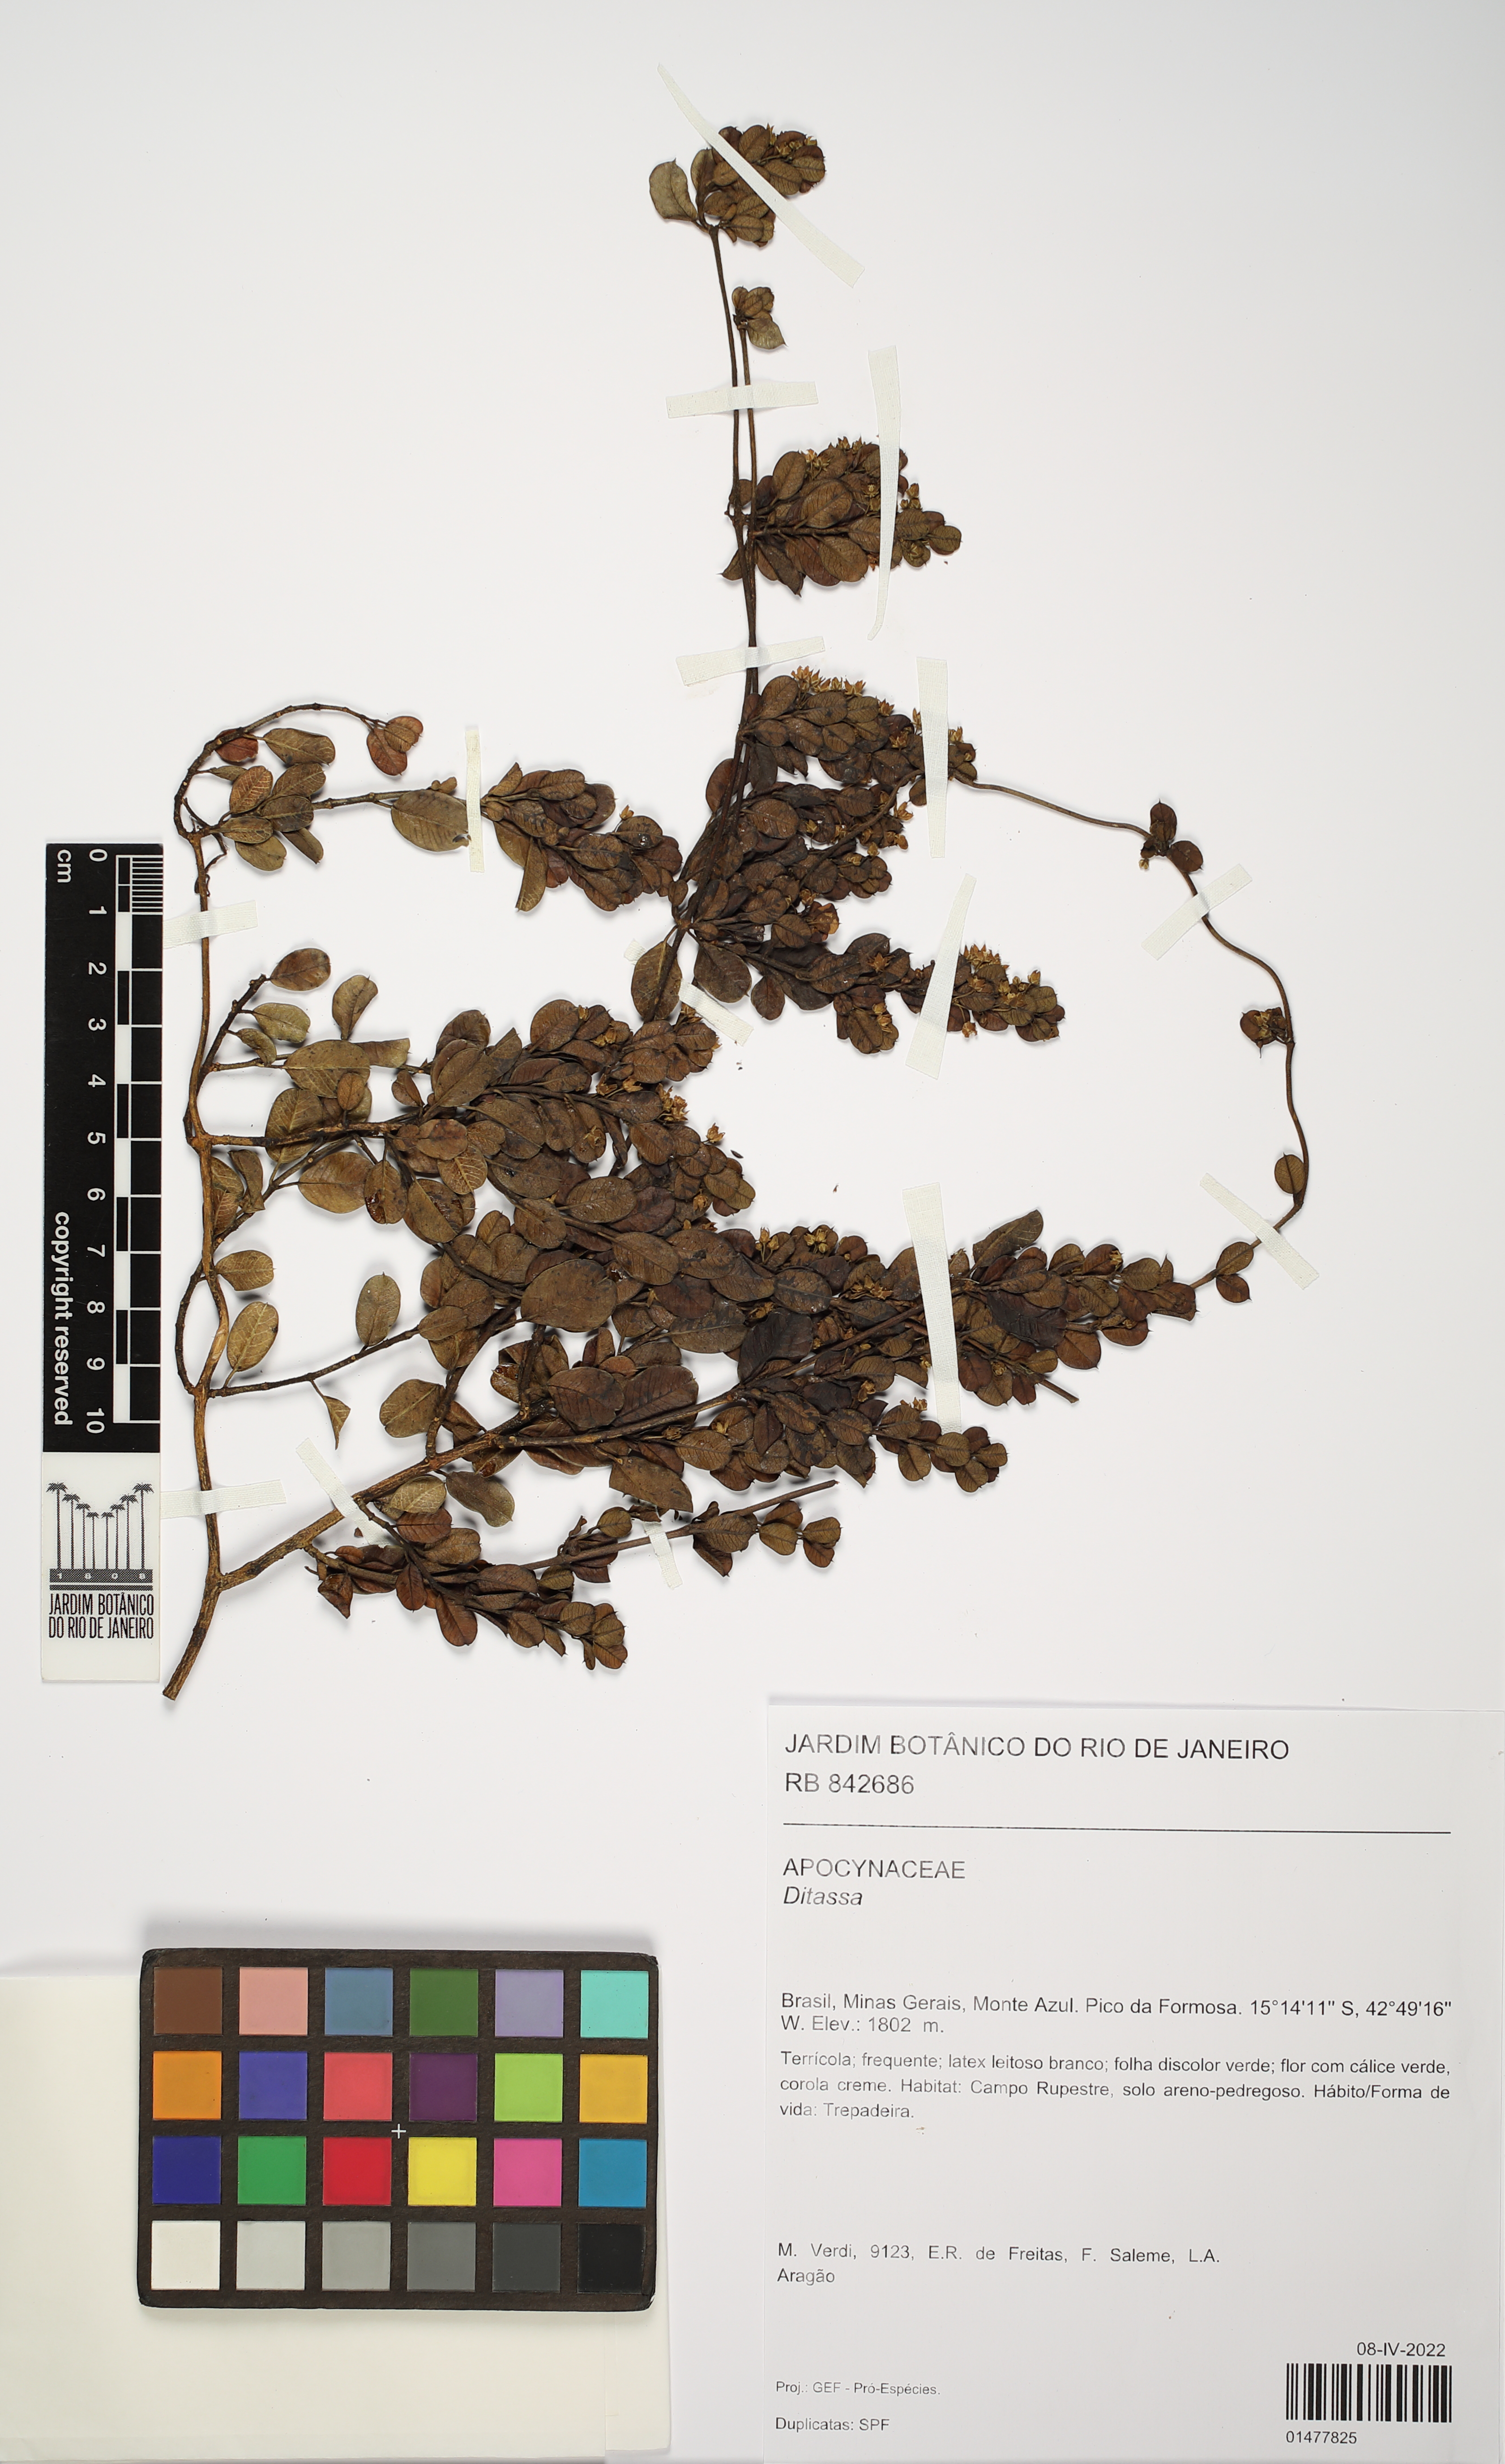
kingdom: Plantae
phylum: Tracheophyta
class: Magnoliopsida
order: Gentianales
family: Apocynaceae
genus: Ditassa
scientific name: Ditassa
